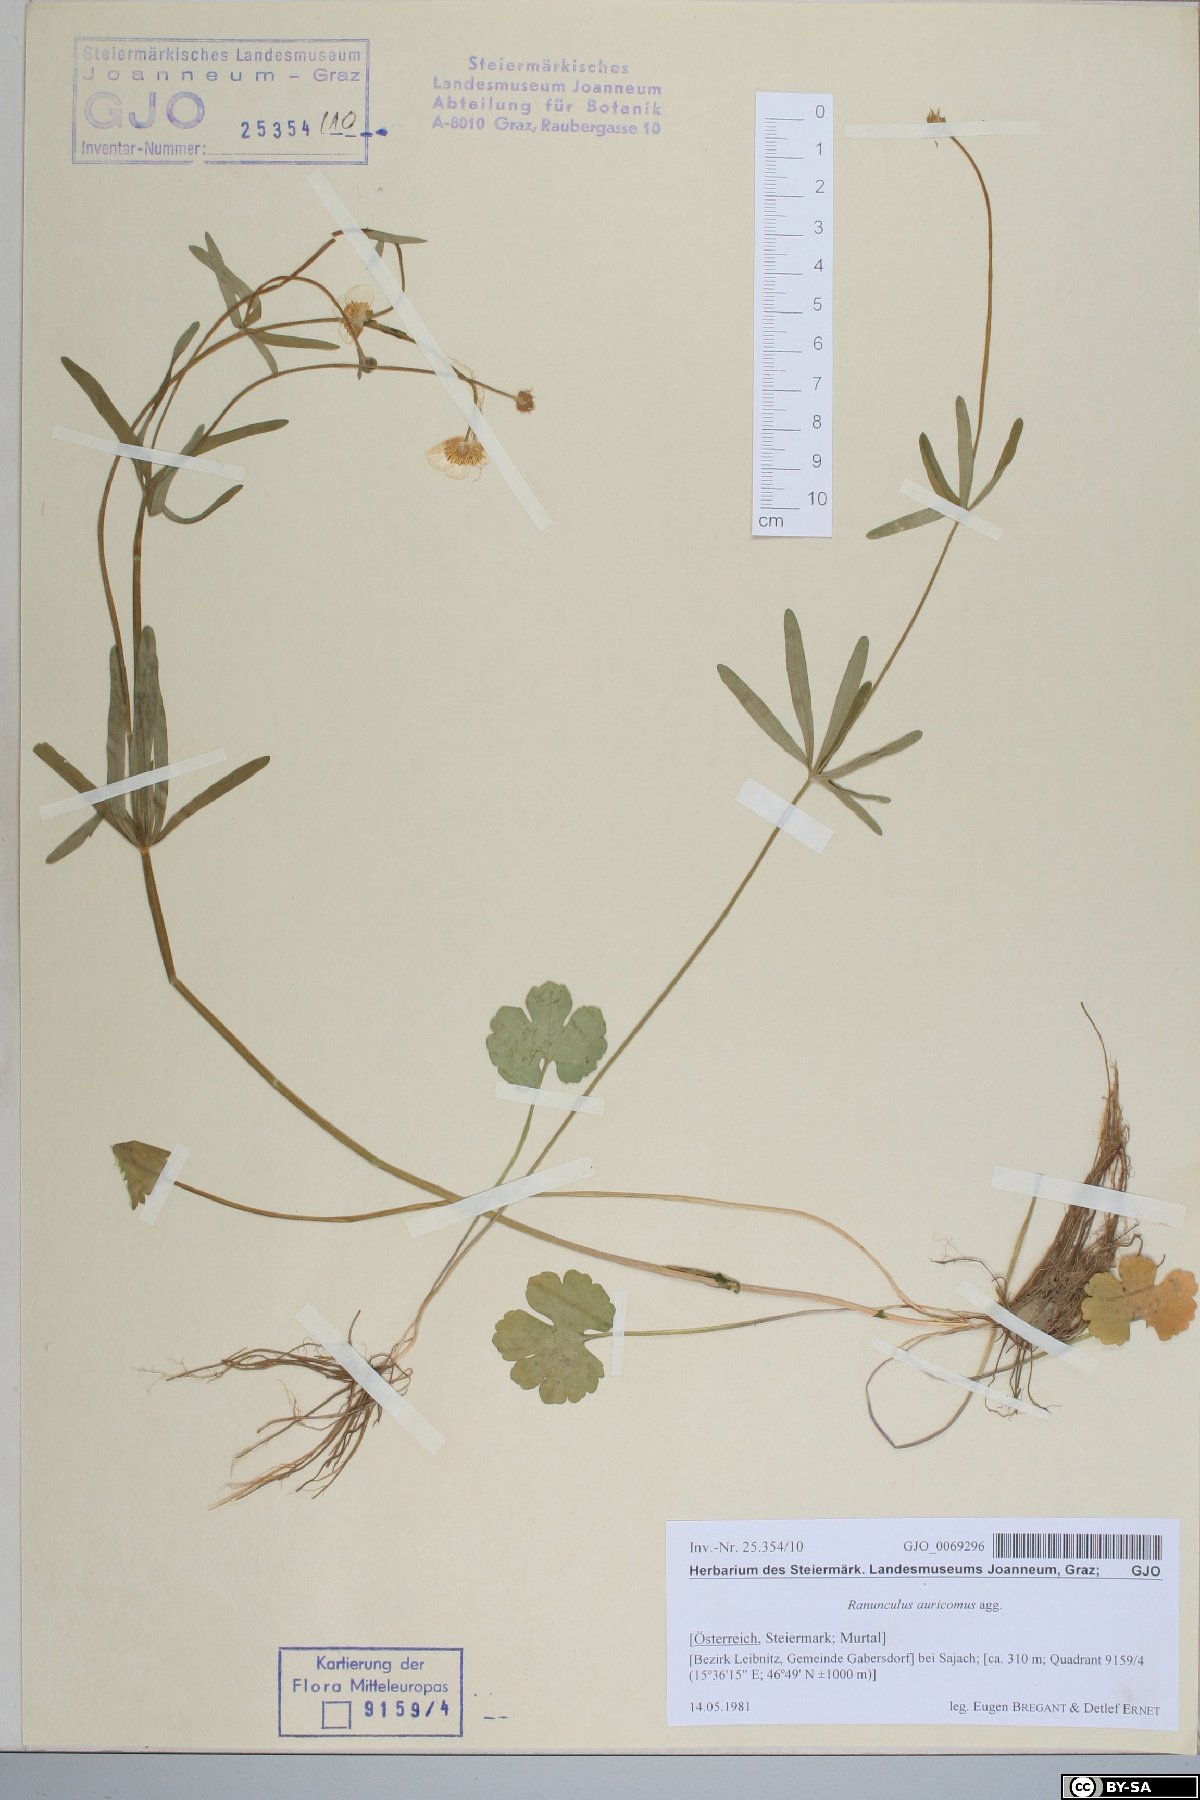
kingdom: Plantae
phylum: Tracheophyta
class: Magnoliopsida
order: Ranunculales
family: Ranunculaceae
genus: Ranunculus
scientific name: Ranunculus auricomus
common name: Goldilocks buttercup
